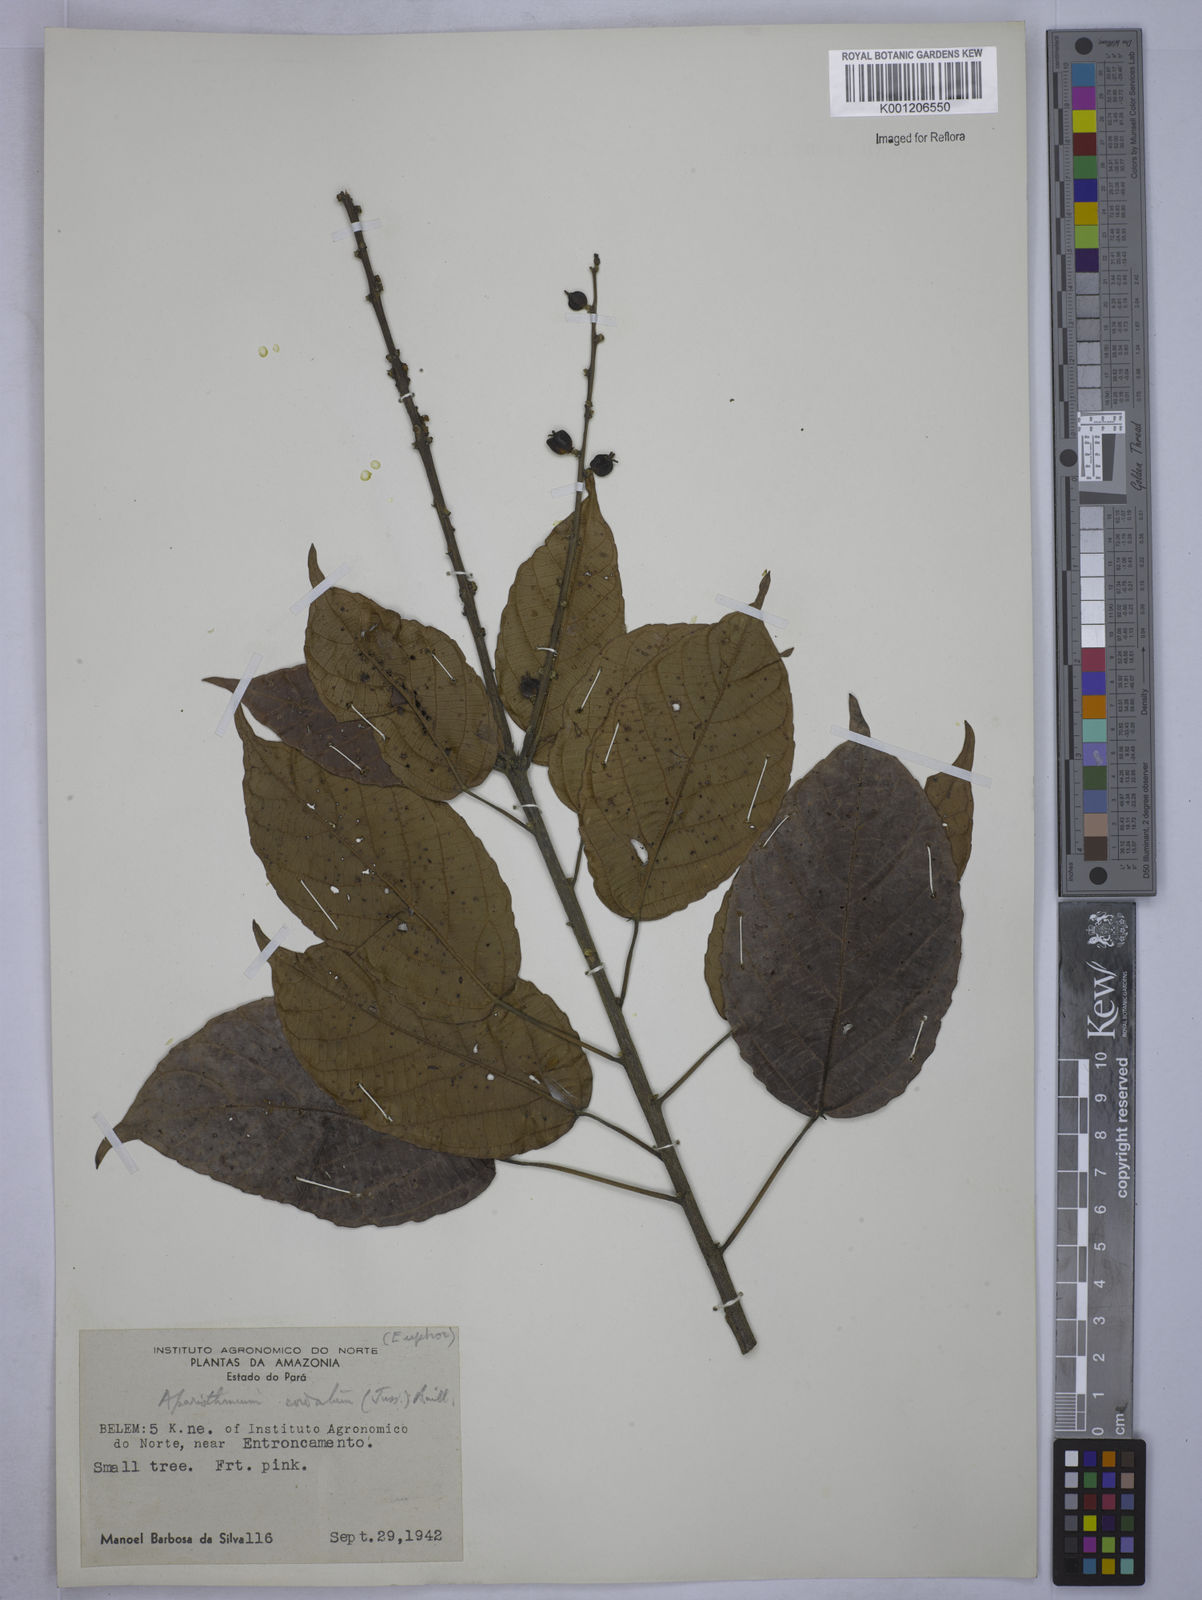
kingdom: Plantae
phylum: Tracheophyta
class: Magnoliopsida
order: Malpighiales
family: Euphorbiaceae
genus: Aparisthmium
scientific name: Aparisthmium cordatum
